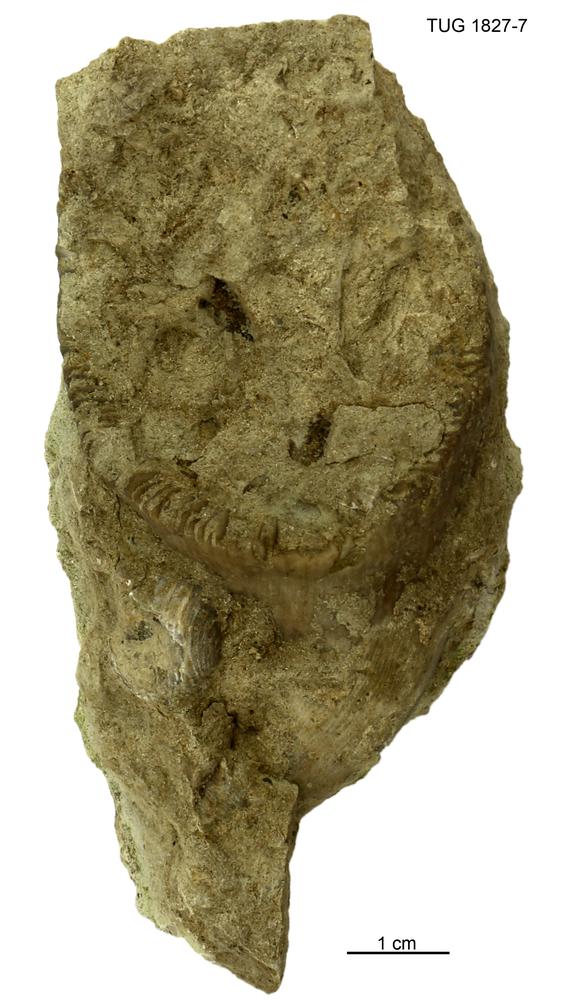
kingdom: Animalia
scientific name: Animalia
